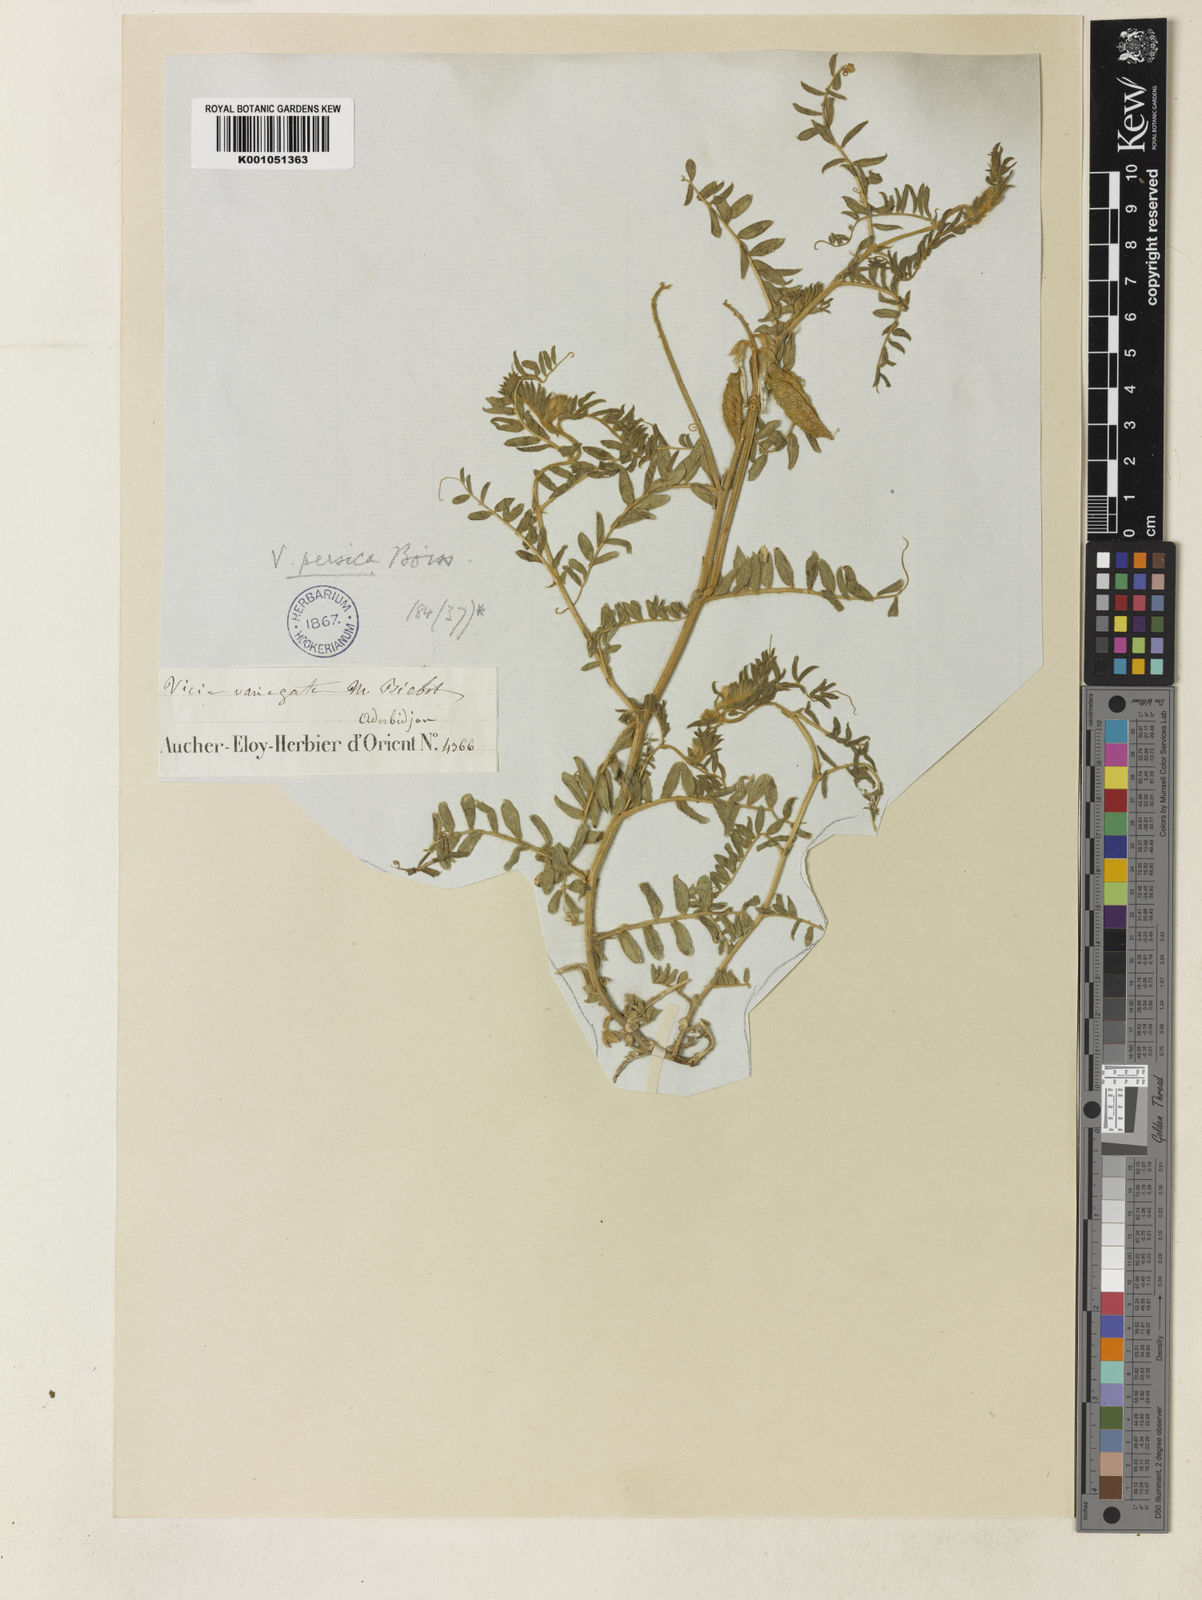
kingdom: Plantae
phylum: Tracheophyta
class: Magnoliopsida
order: Fabales
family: Fabaceae
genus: Vicia
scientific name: Vicia dumetorum
